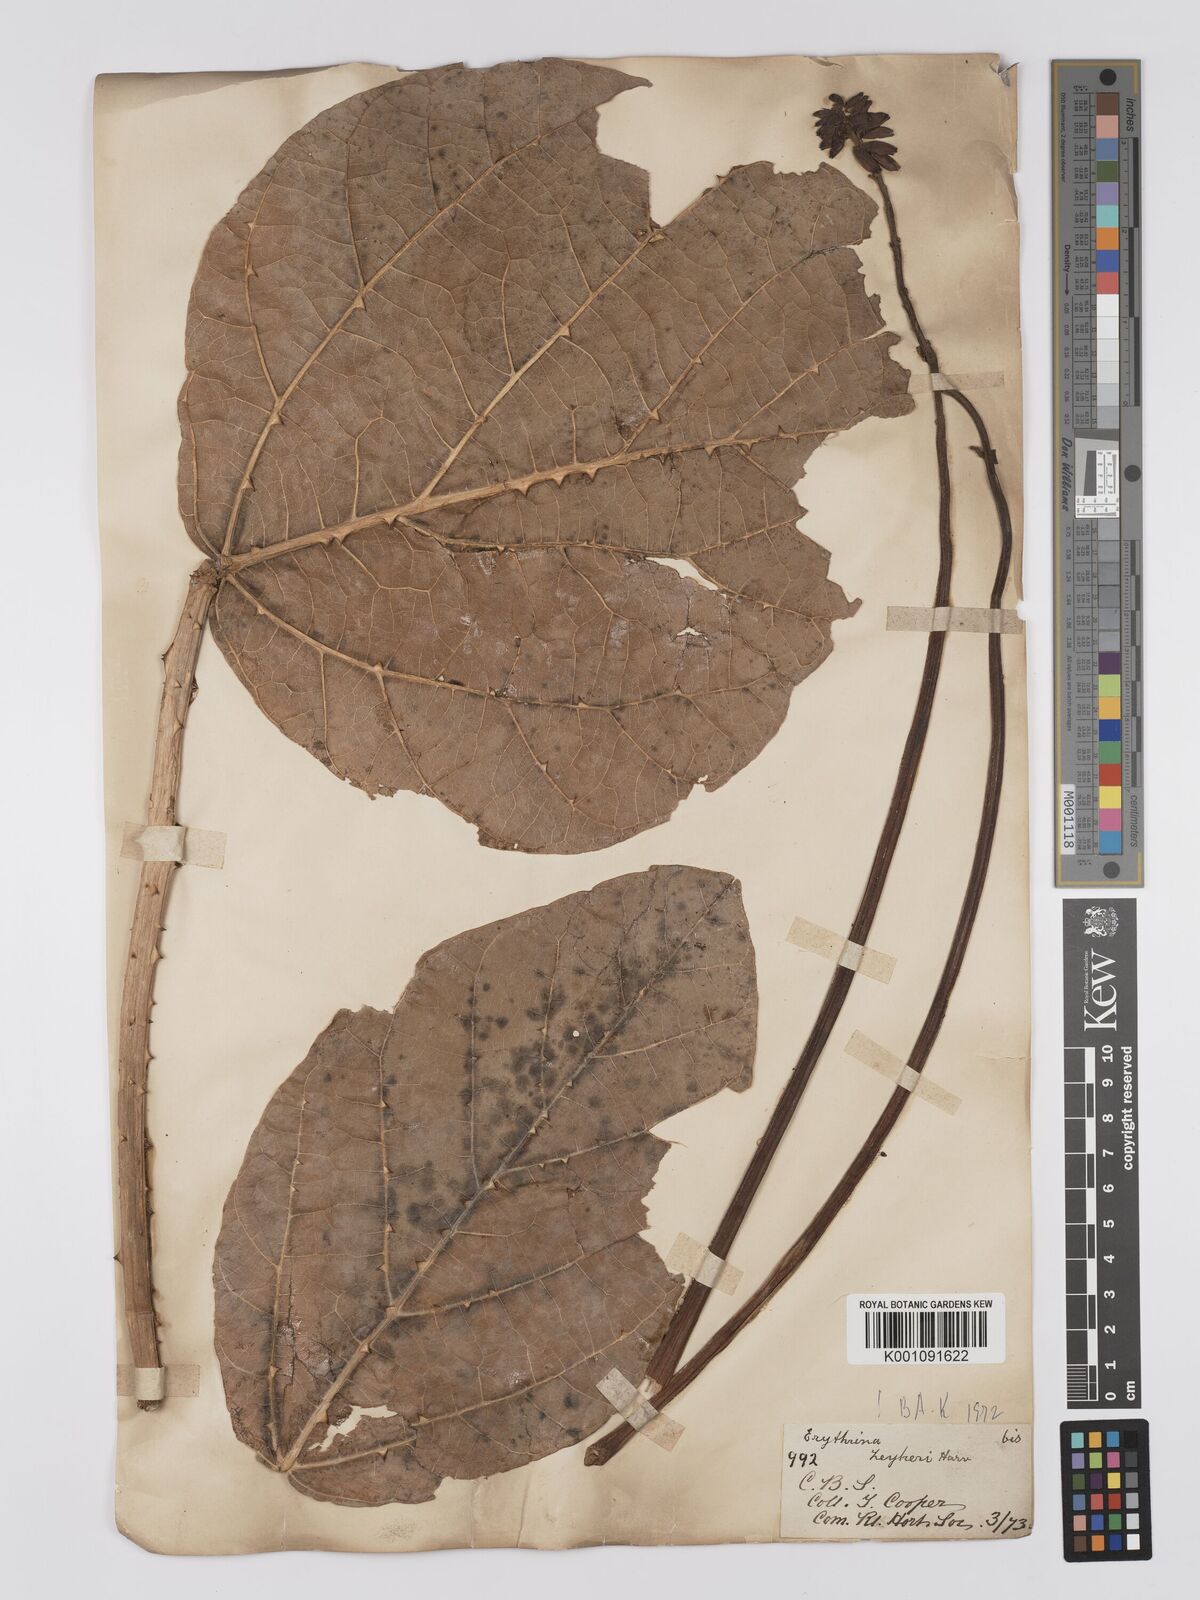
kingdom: Plantae
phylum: Tracheophyta
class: Magnoliopsida
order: Fabales
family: Fabaceae
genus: Erythrina
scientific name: Erythrina zeyheri
